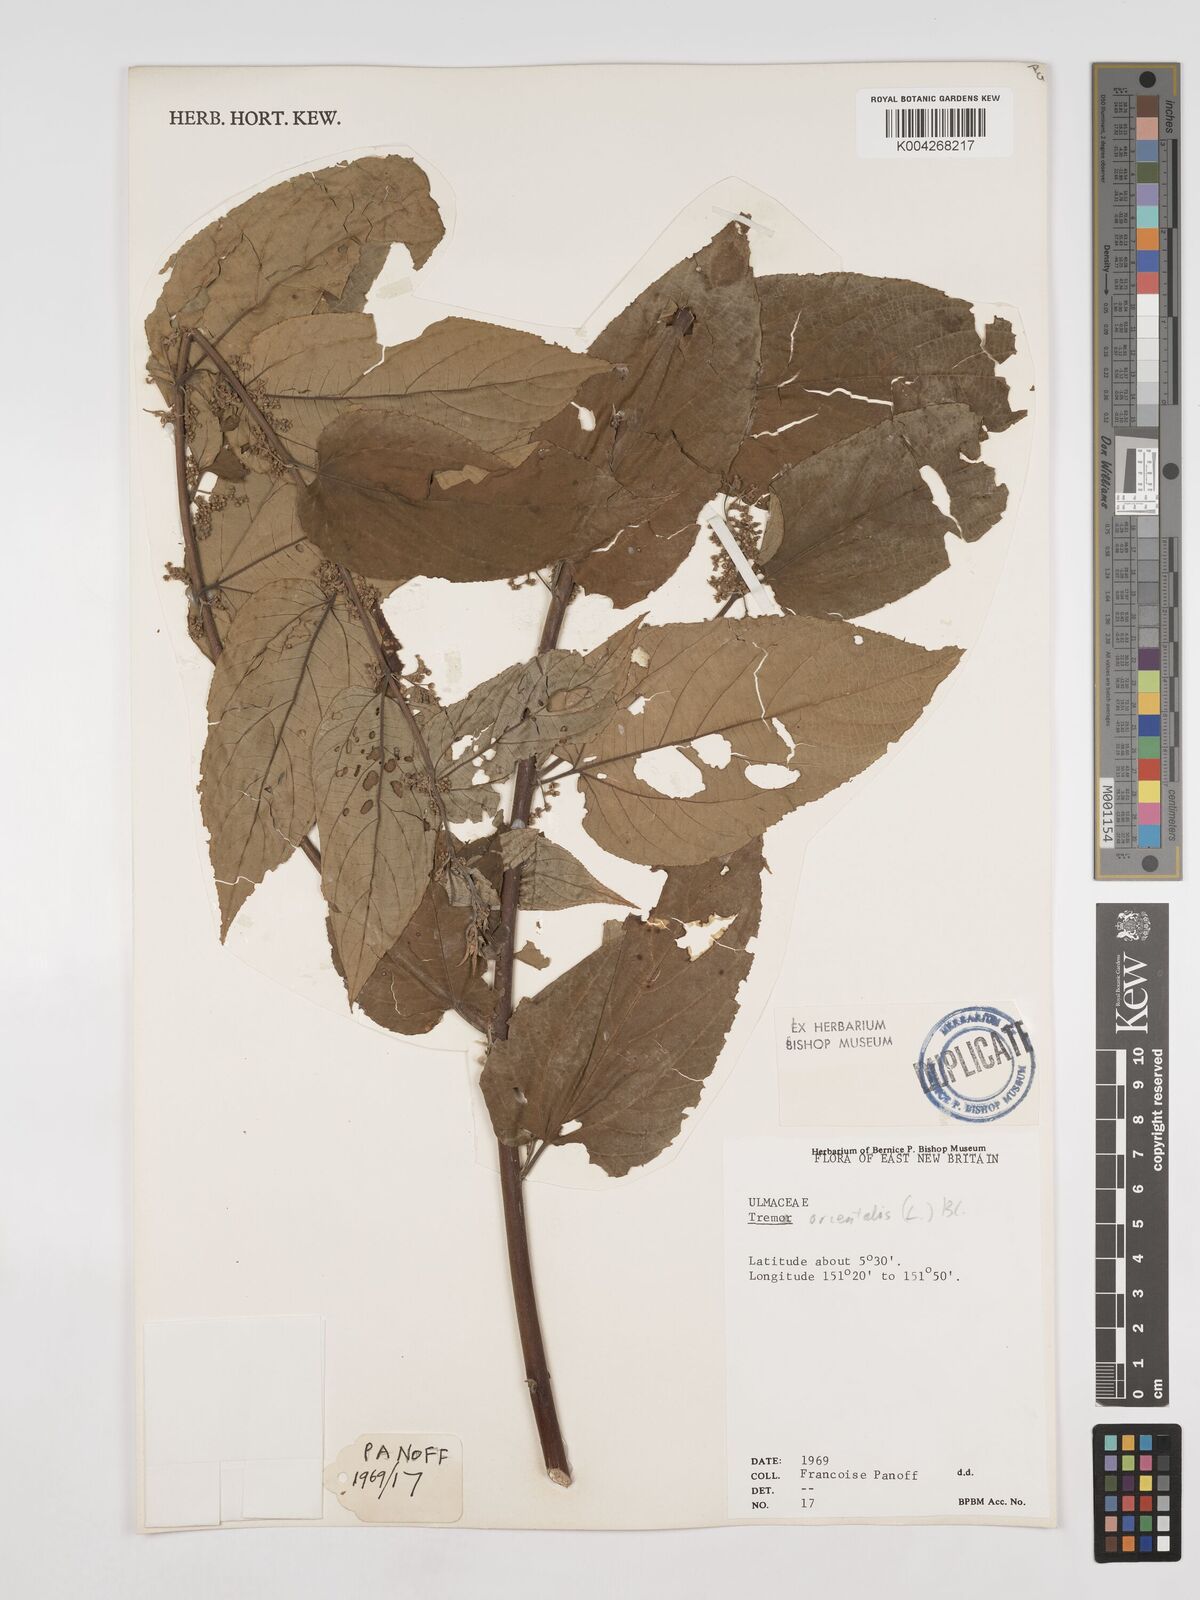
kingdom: Plantae
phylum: Tracheophyta
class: Magnoliopsida
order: Rosales
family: Cannabaceae
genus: Trema
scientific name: Trema orientale
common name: Indian charcoal tree
